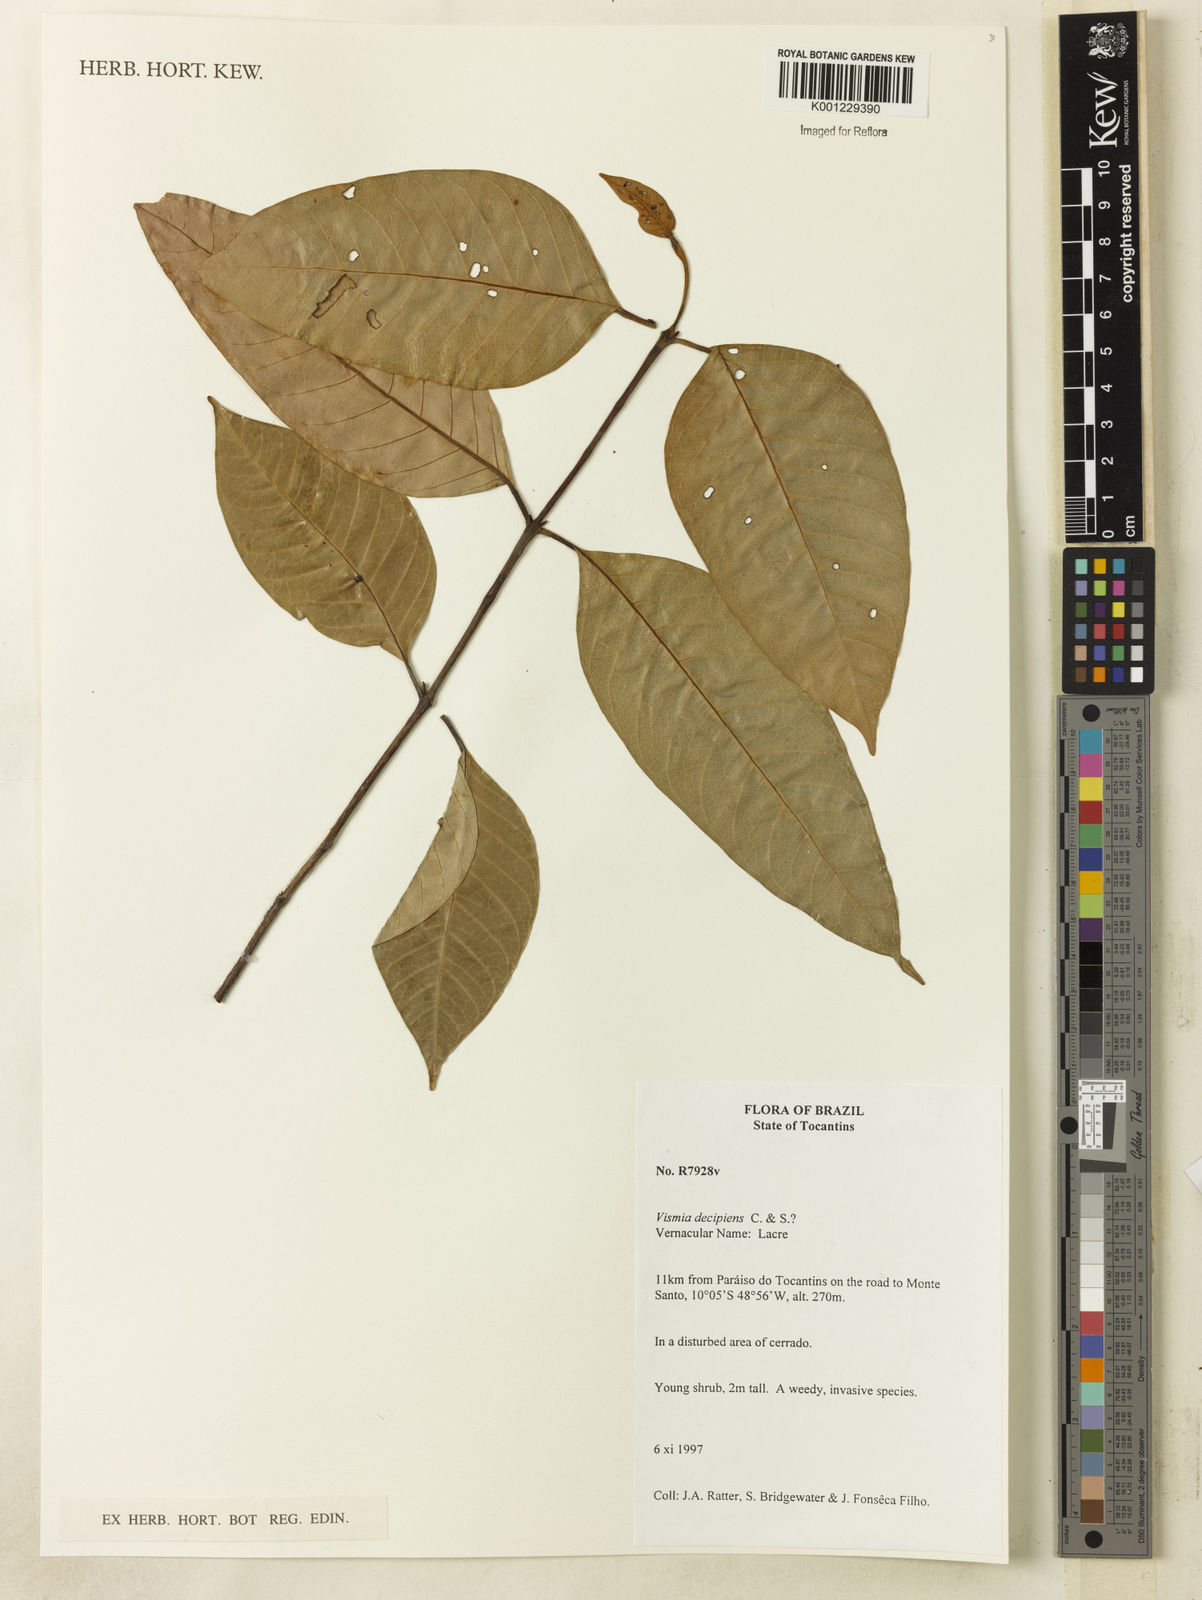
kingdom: Plantae
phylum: Tracheophyta
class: Magnoliopsida
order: Malpighiales
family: Hypericaceae
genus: Vismia
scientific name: Vismia pentagyna
